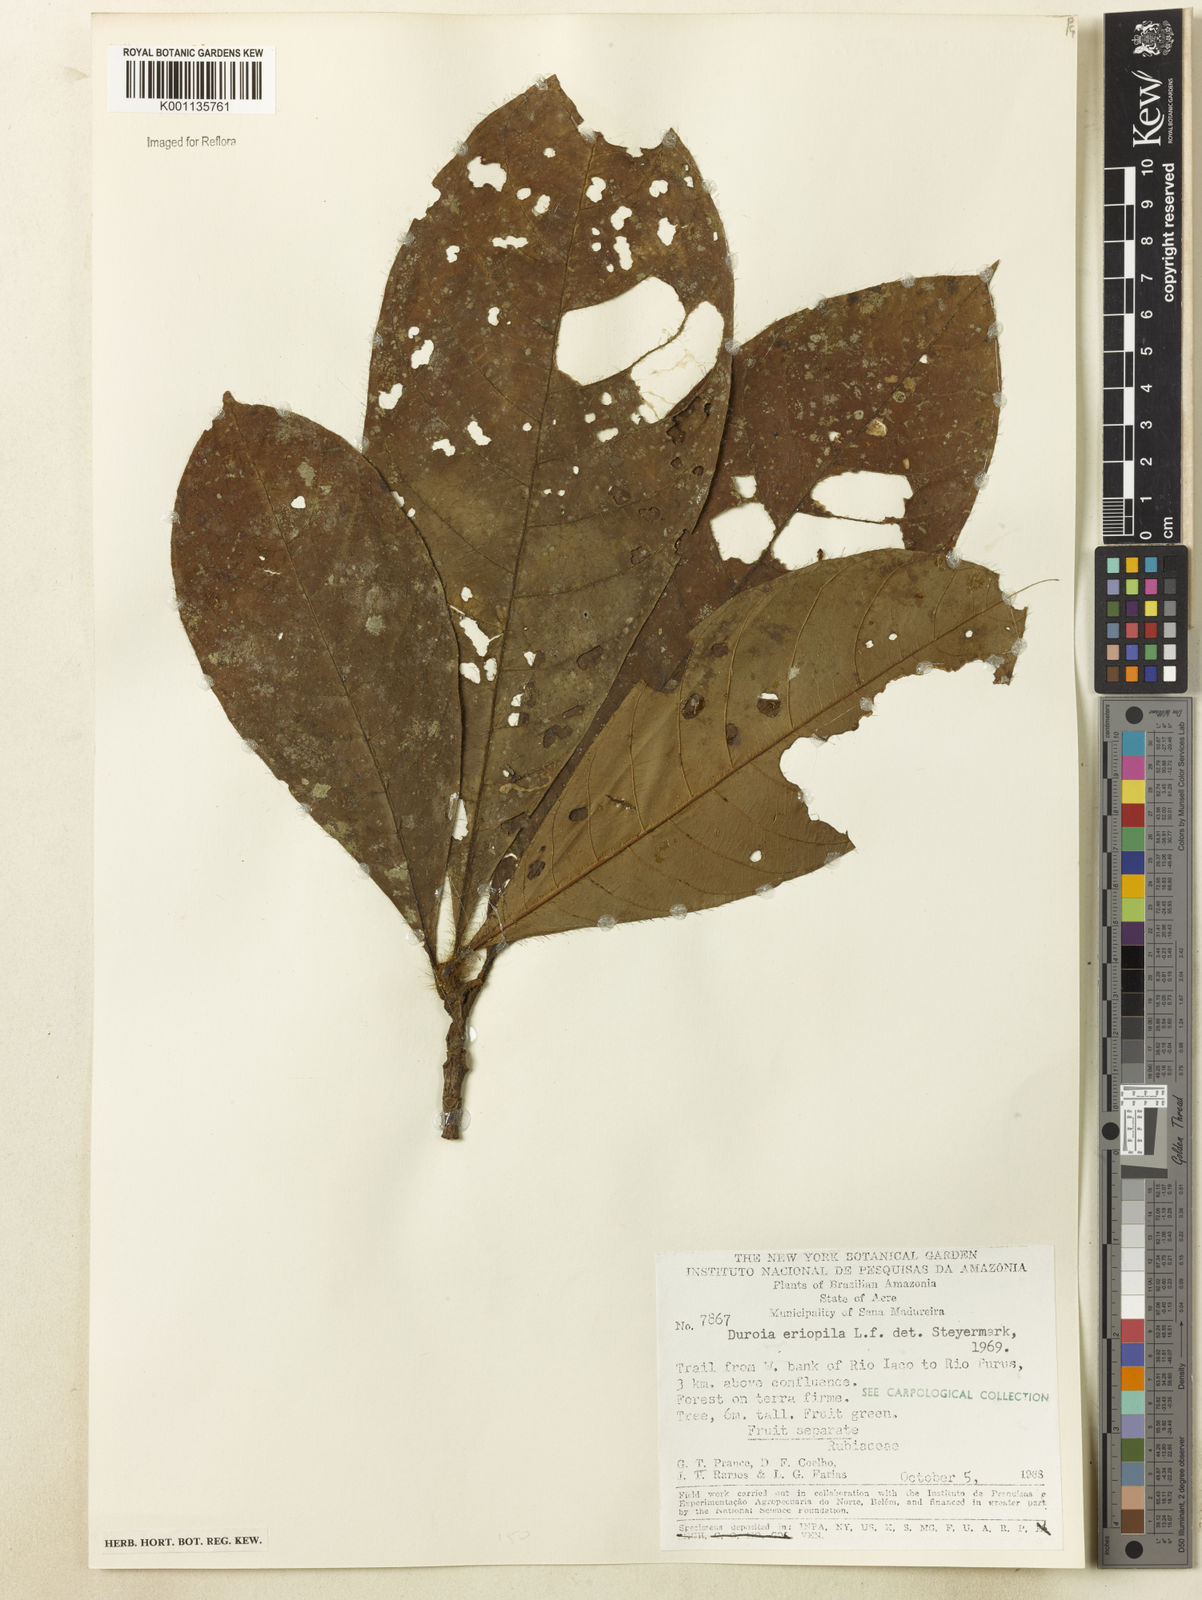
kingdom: Plantae
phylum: Tracheophyta
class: Magnoliopsida
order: Gentianales
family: Rubiaceae
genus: Duroia
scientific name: Duroia eriopila
